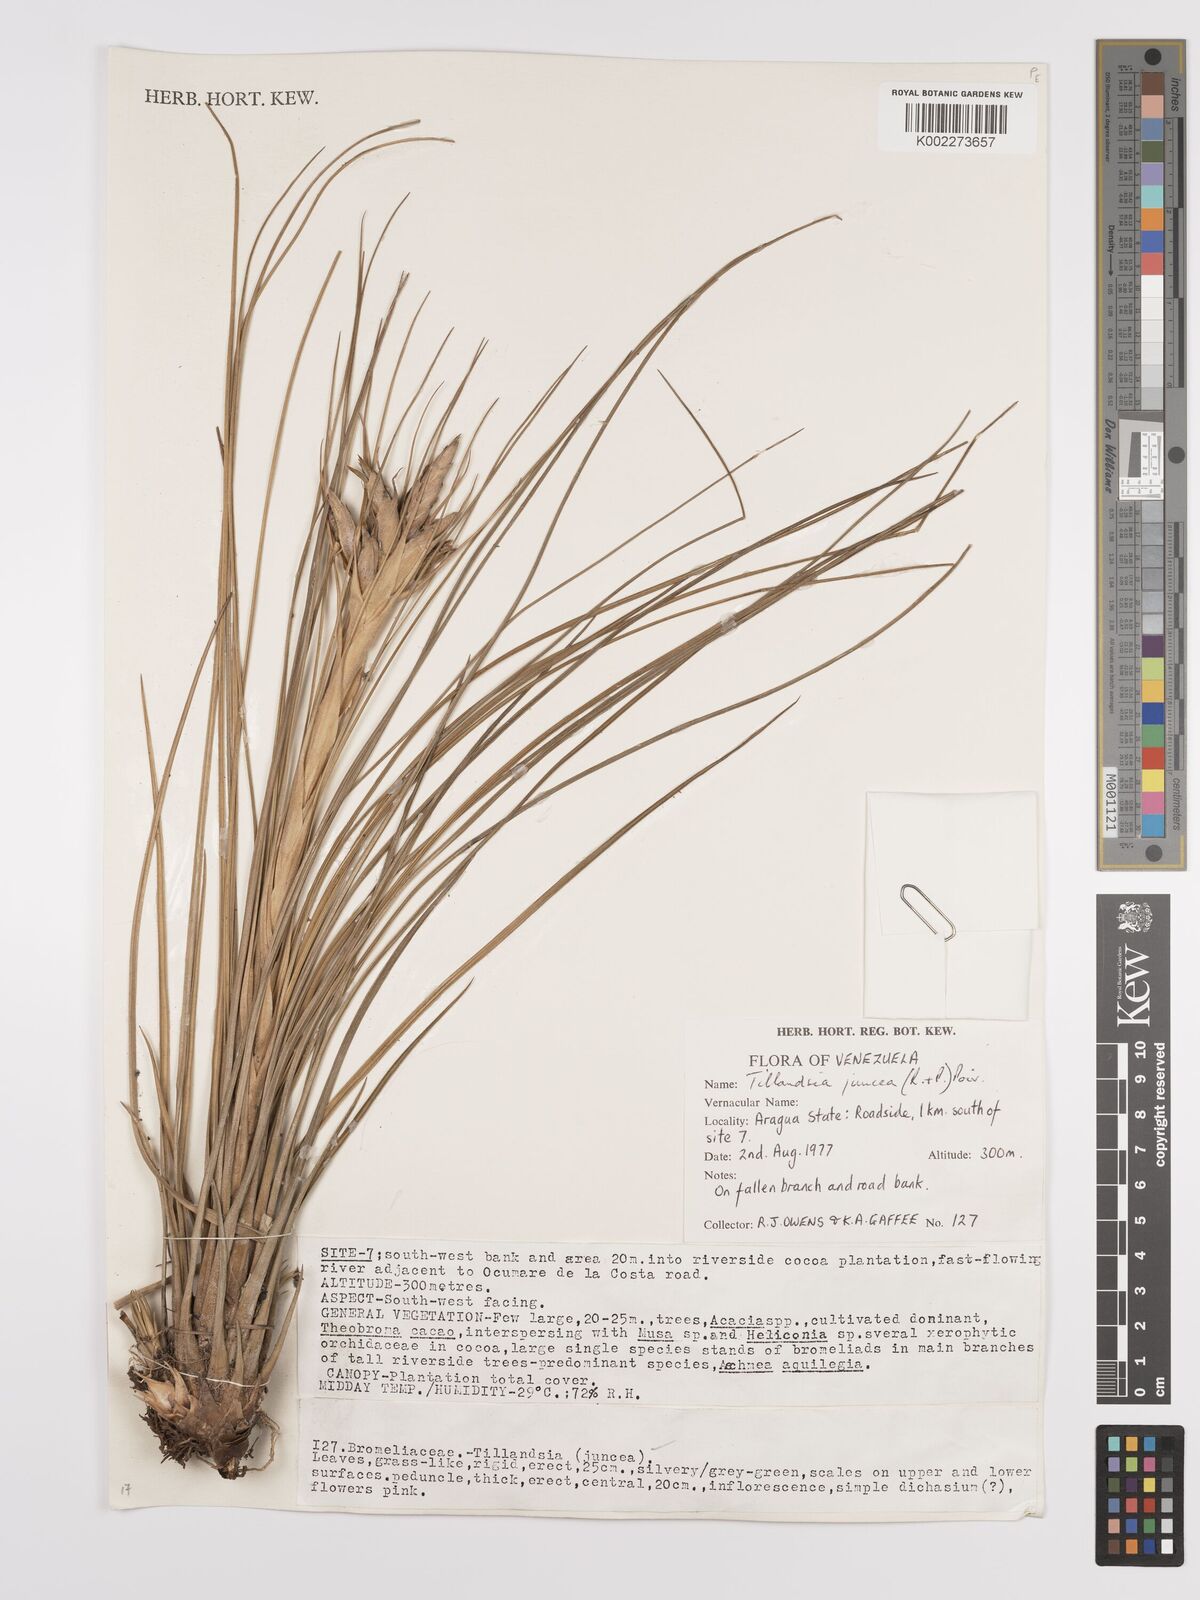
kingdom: Plantae
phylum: Tracheophyta
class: Liliopsida
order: Poales
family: Bromeliaceae
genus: Tillandsia
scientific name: Tillandsia juncea
